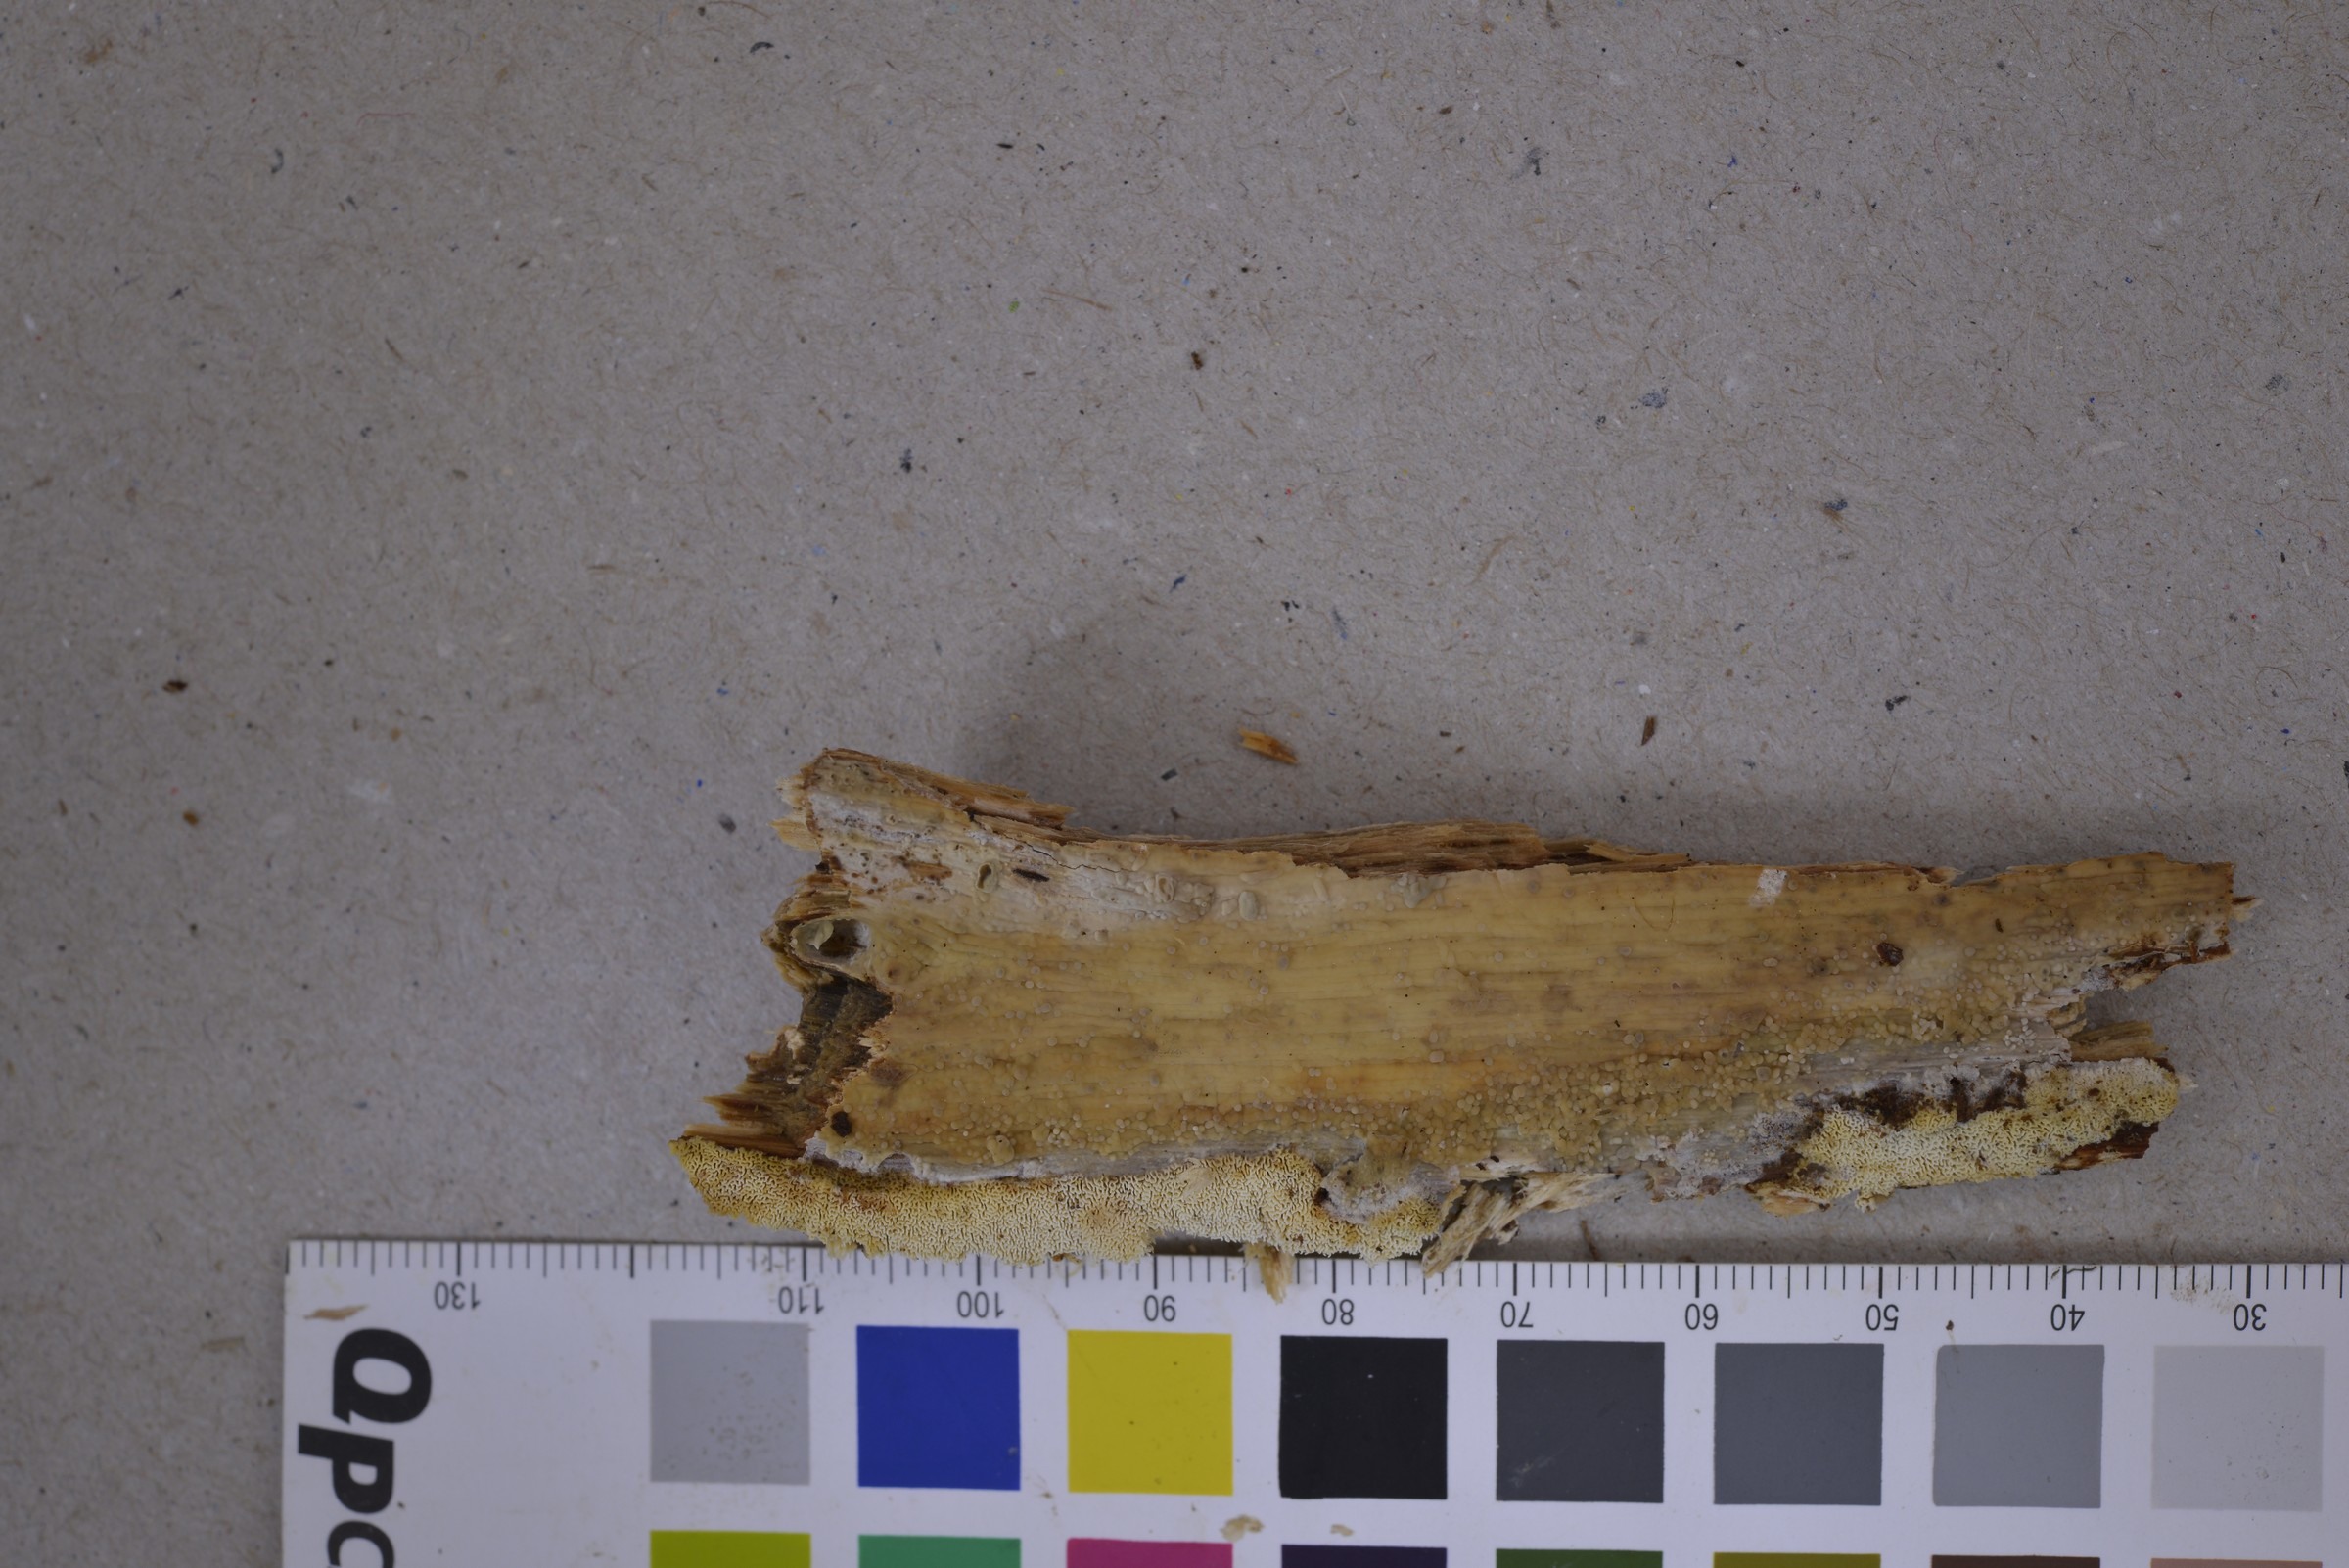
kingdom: Fungi
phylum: Basidiomycota
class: Agaricomycetes
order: Amylocorticiales
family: Amylocorticiaceae
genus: Ceraceomyces
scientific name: Ceraceomyces
